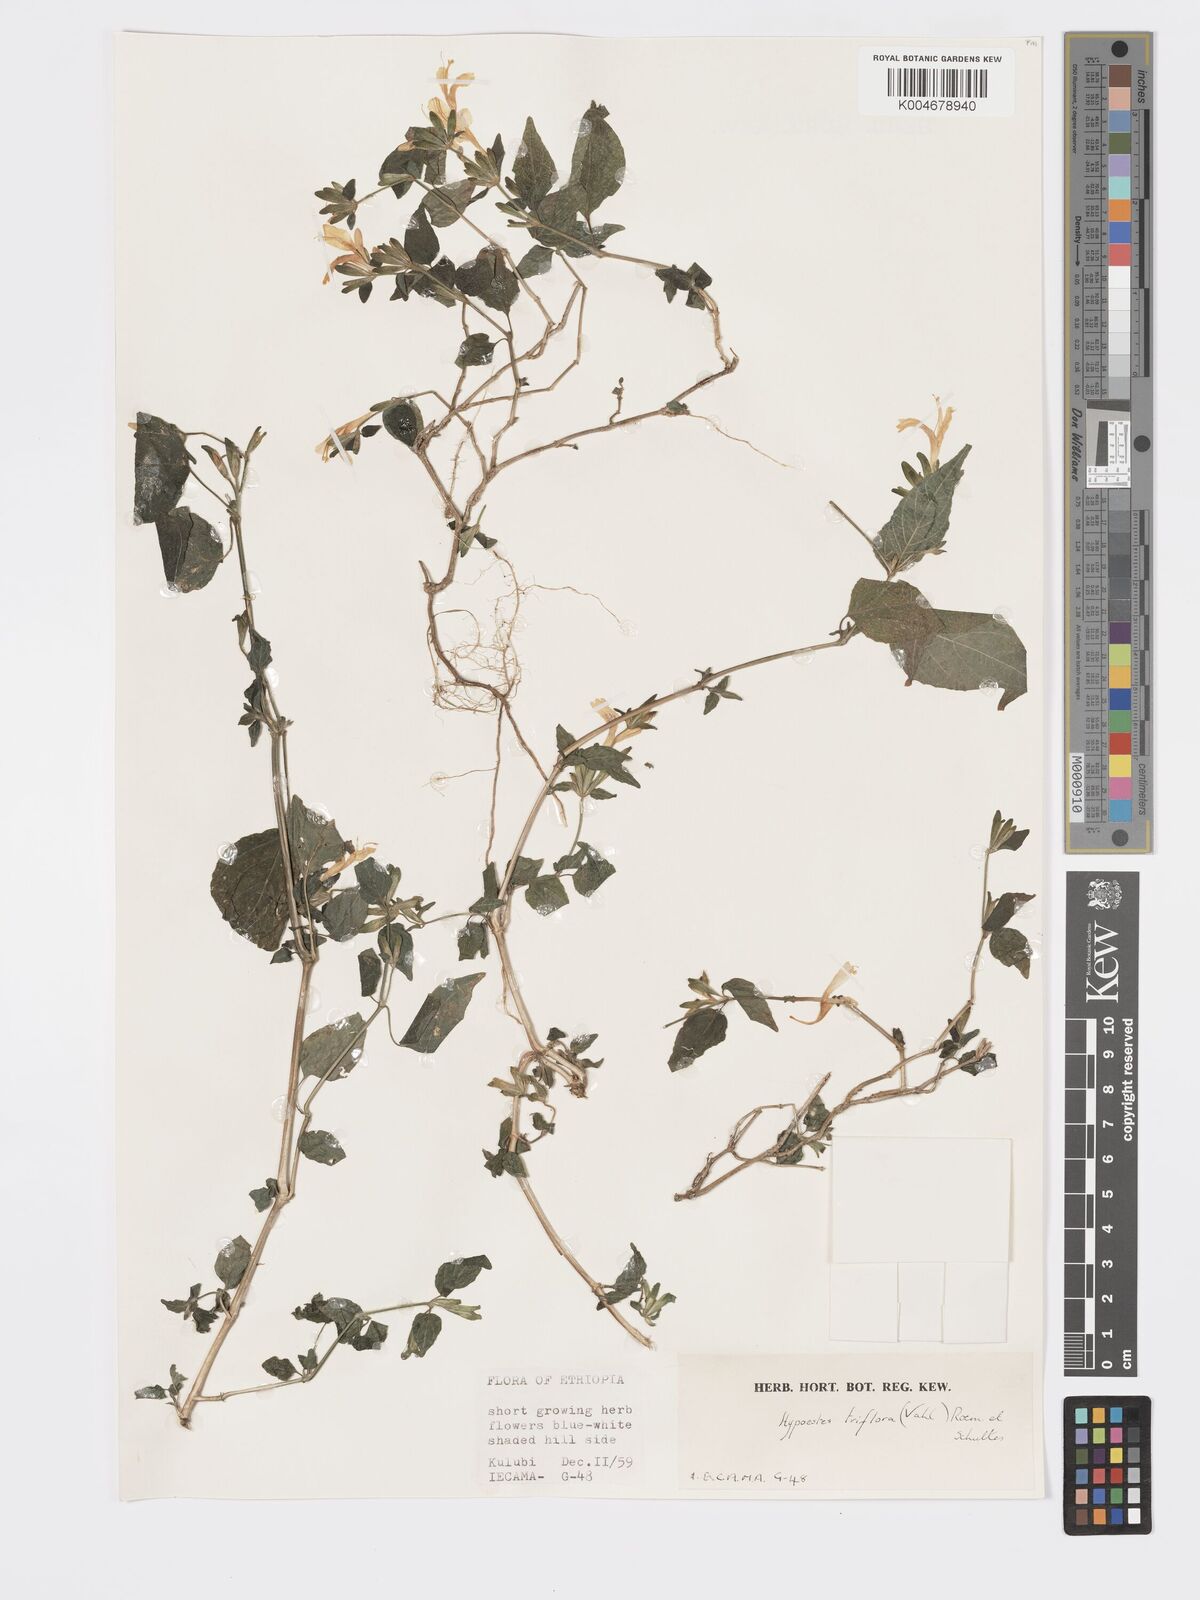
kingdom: Plantae
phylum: Tracheophyta
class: Magnoliopsida
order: Lamiales
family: Acanthaceae
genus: Hypoestes
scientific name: Hypoestes triflora
